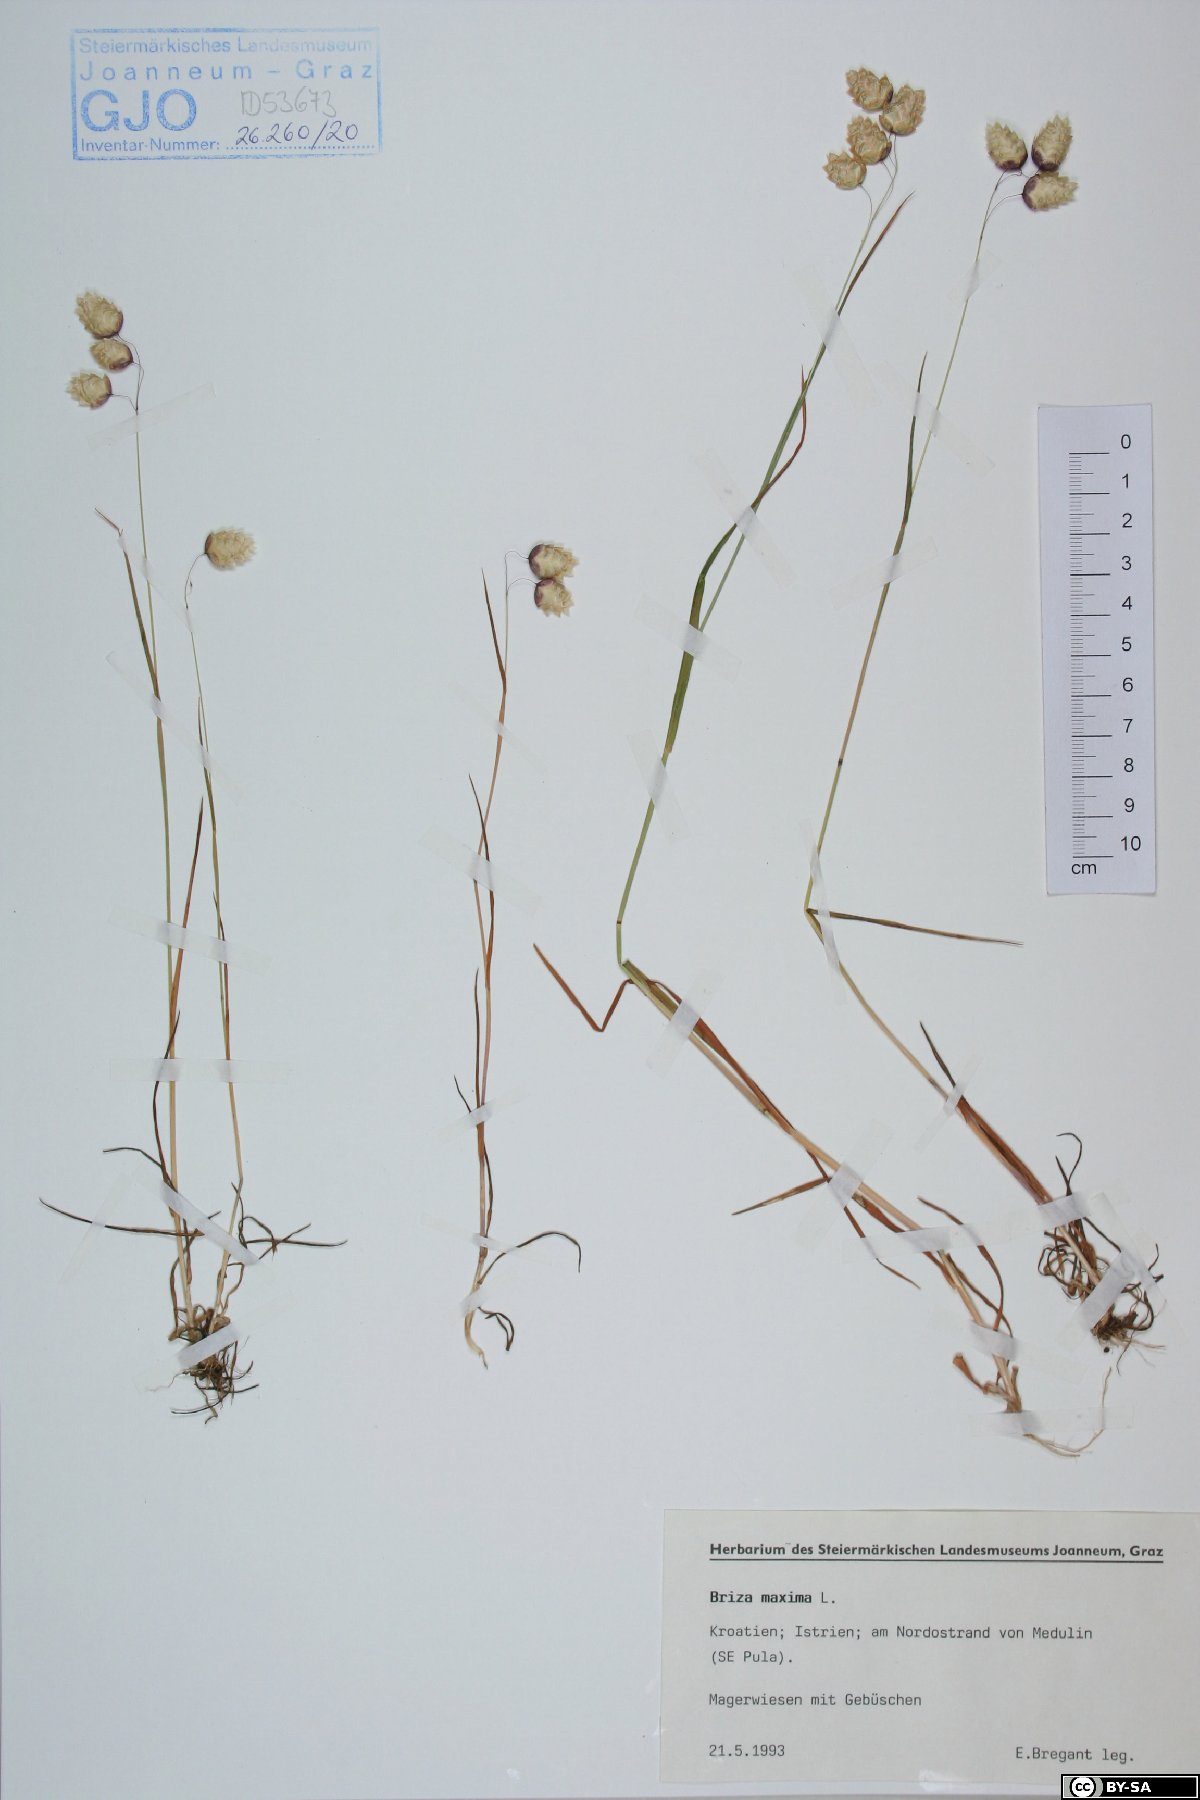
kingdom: Plantae
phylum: Tracheophyta
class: Liliopsida
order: Poales
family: Poaceae
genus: Briza
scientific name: Briza maxima
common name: Big quakinggrass
